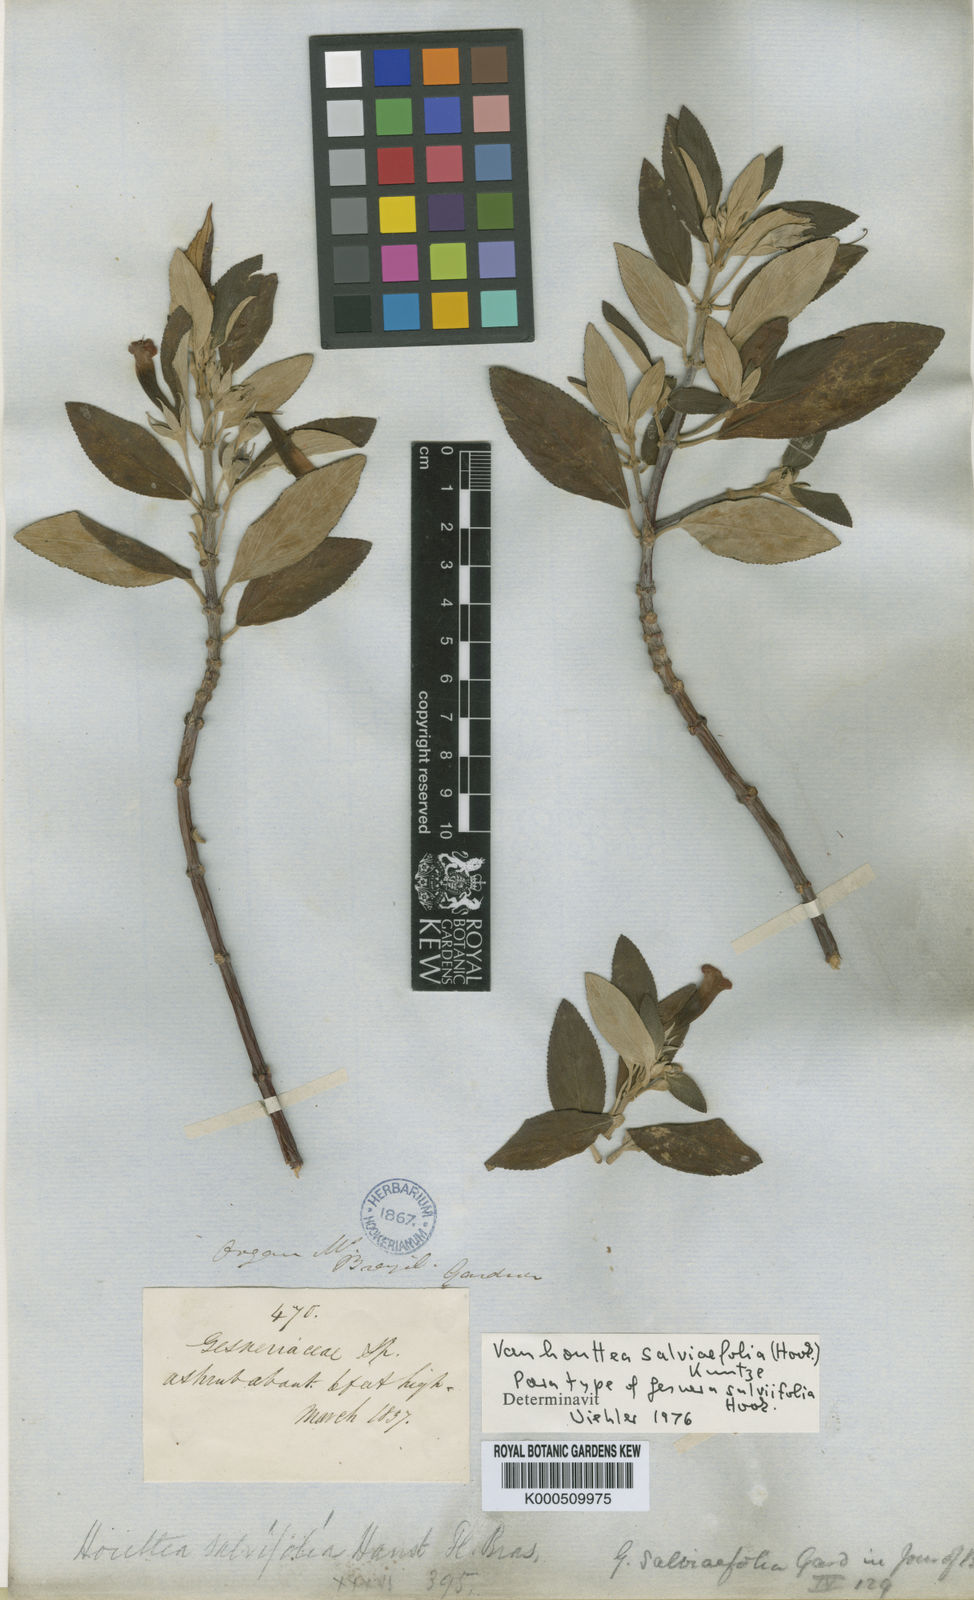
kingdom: Plantae
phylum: Tracheophyta
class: Magnoliopsida
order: Lamiales
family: Gesneriaceae
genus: Vanhouttea
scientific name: Vanhouttea calcarata
